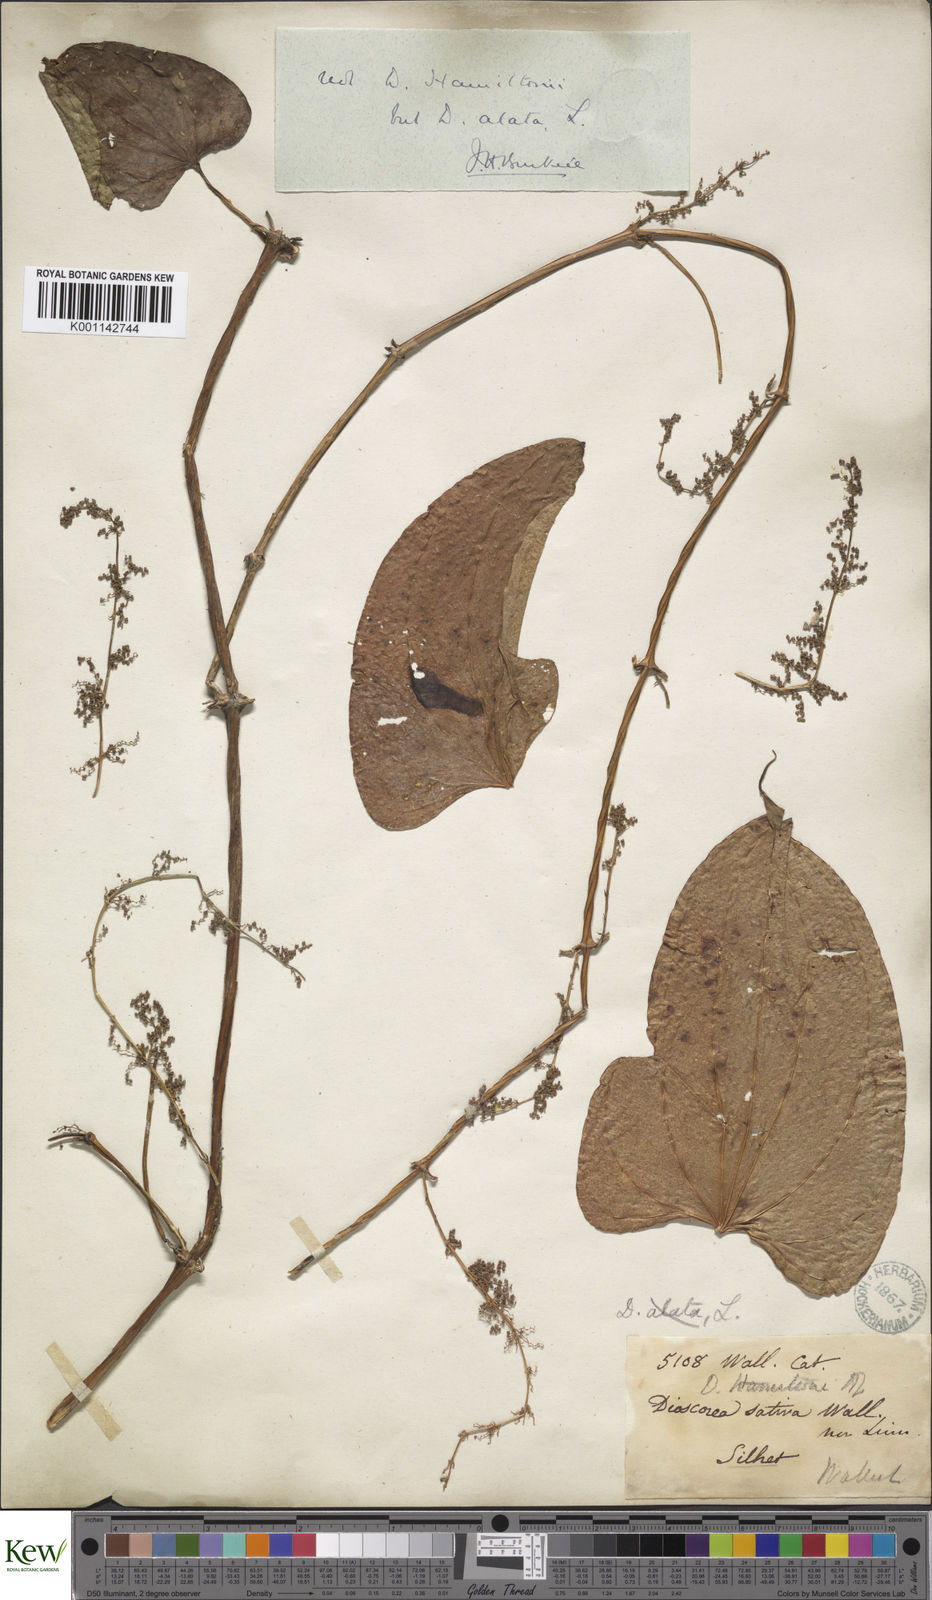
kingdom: Plantae
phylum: Tracheophyta
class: Liliopsida
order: Dioscoreales
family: Dioscoreaceae
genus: Dioscorea
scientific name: Dioscorea alata
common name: Water yam
